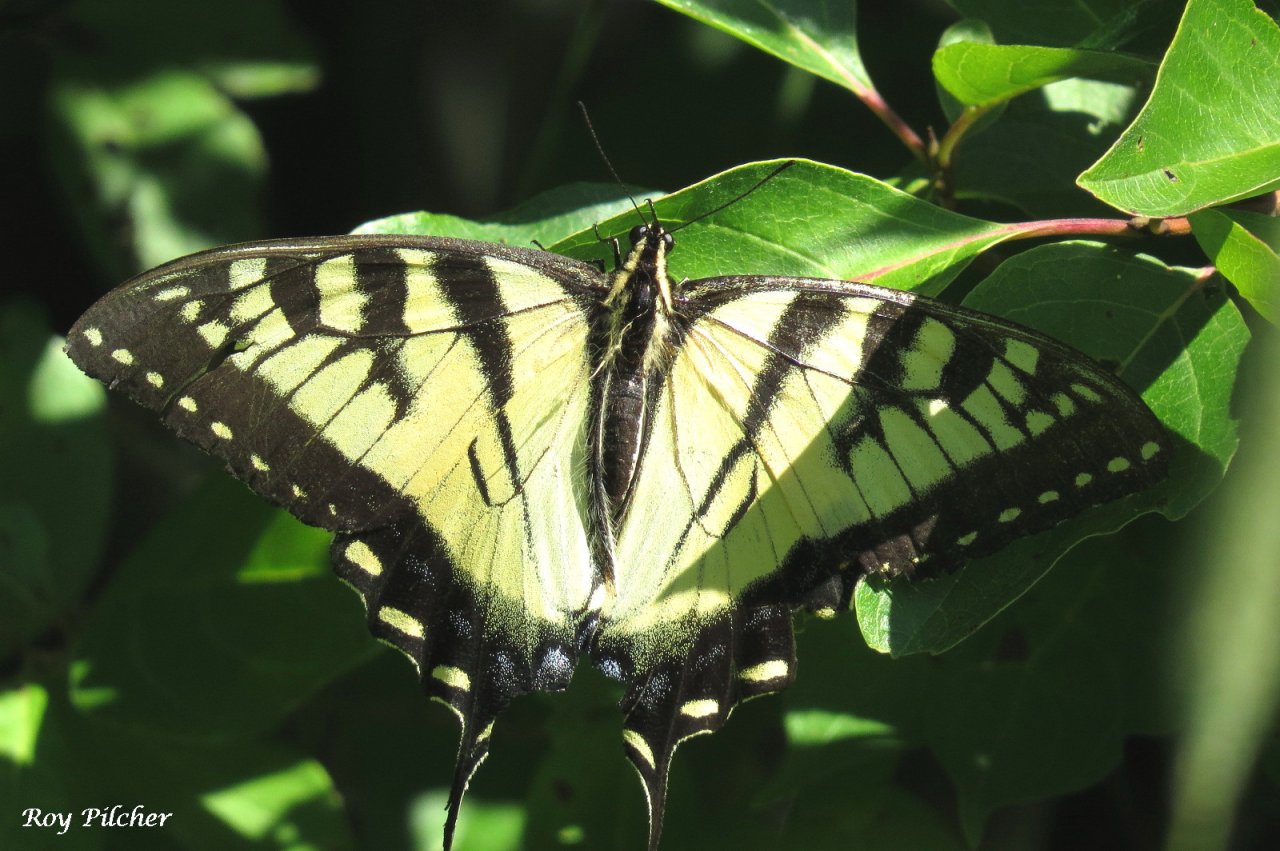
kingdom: Animalia
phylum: Arthropoda
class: Insecta
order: Lepidoptera
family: Papilionidae
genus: Pterourus
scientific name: Pterourus glaucus
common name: Eastern Tiger Swallowtail
